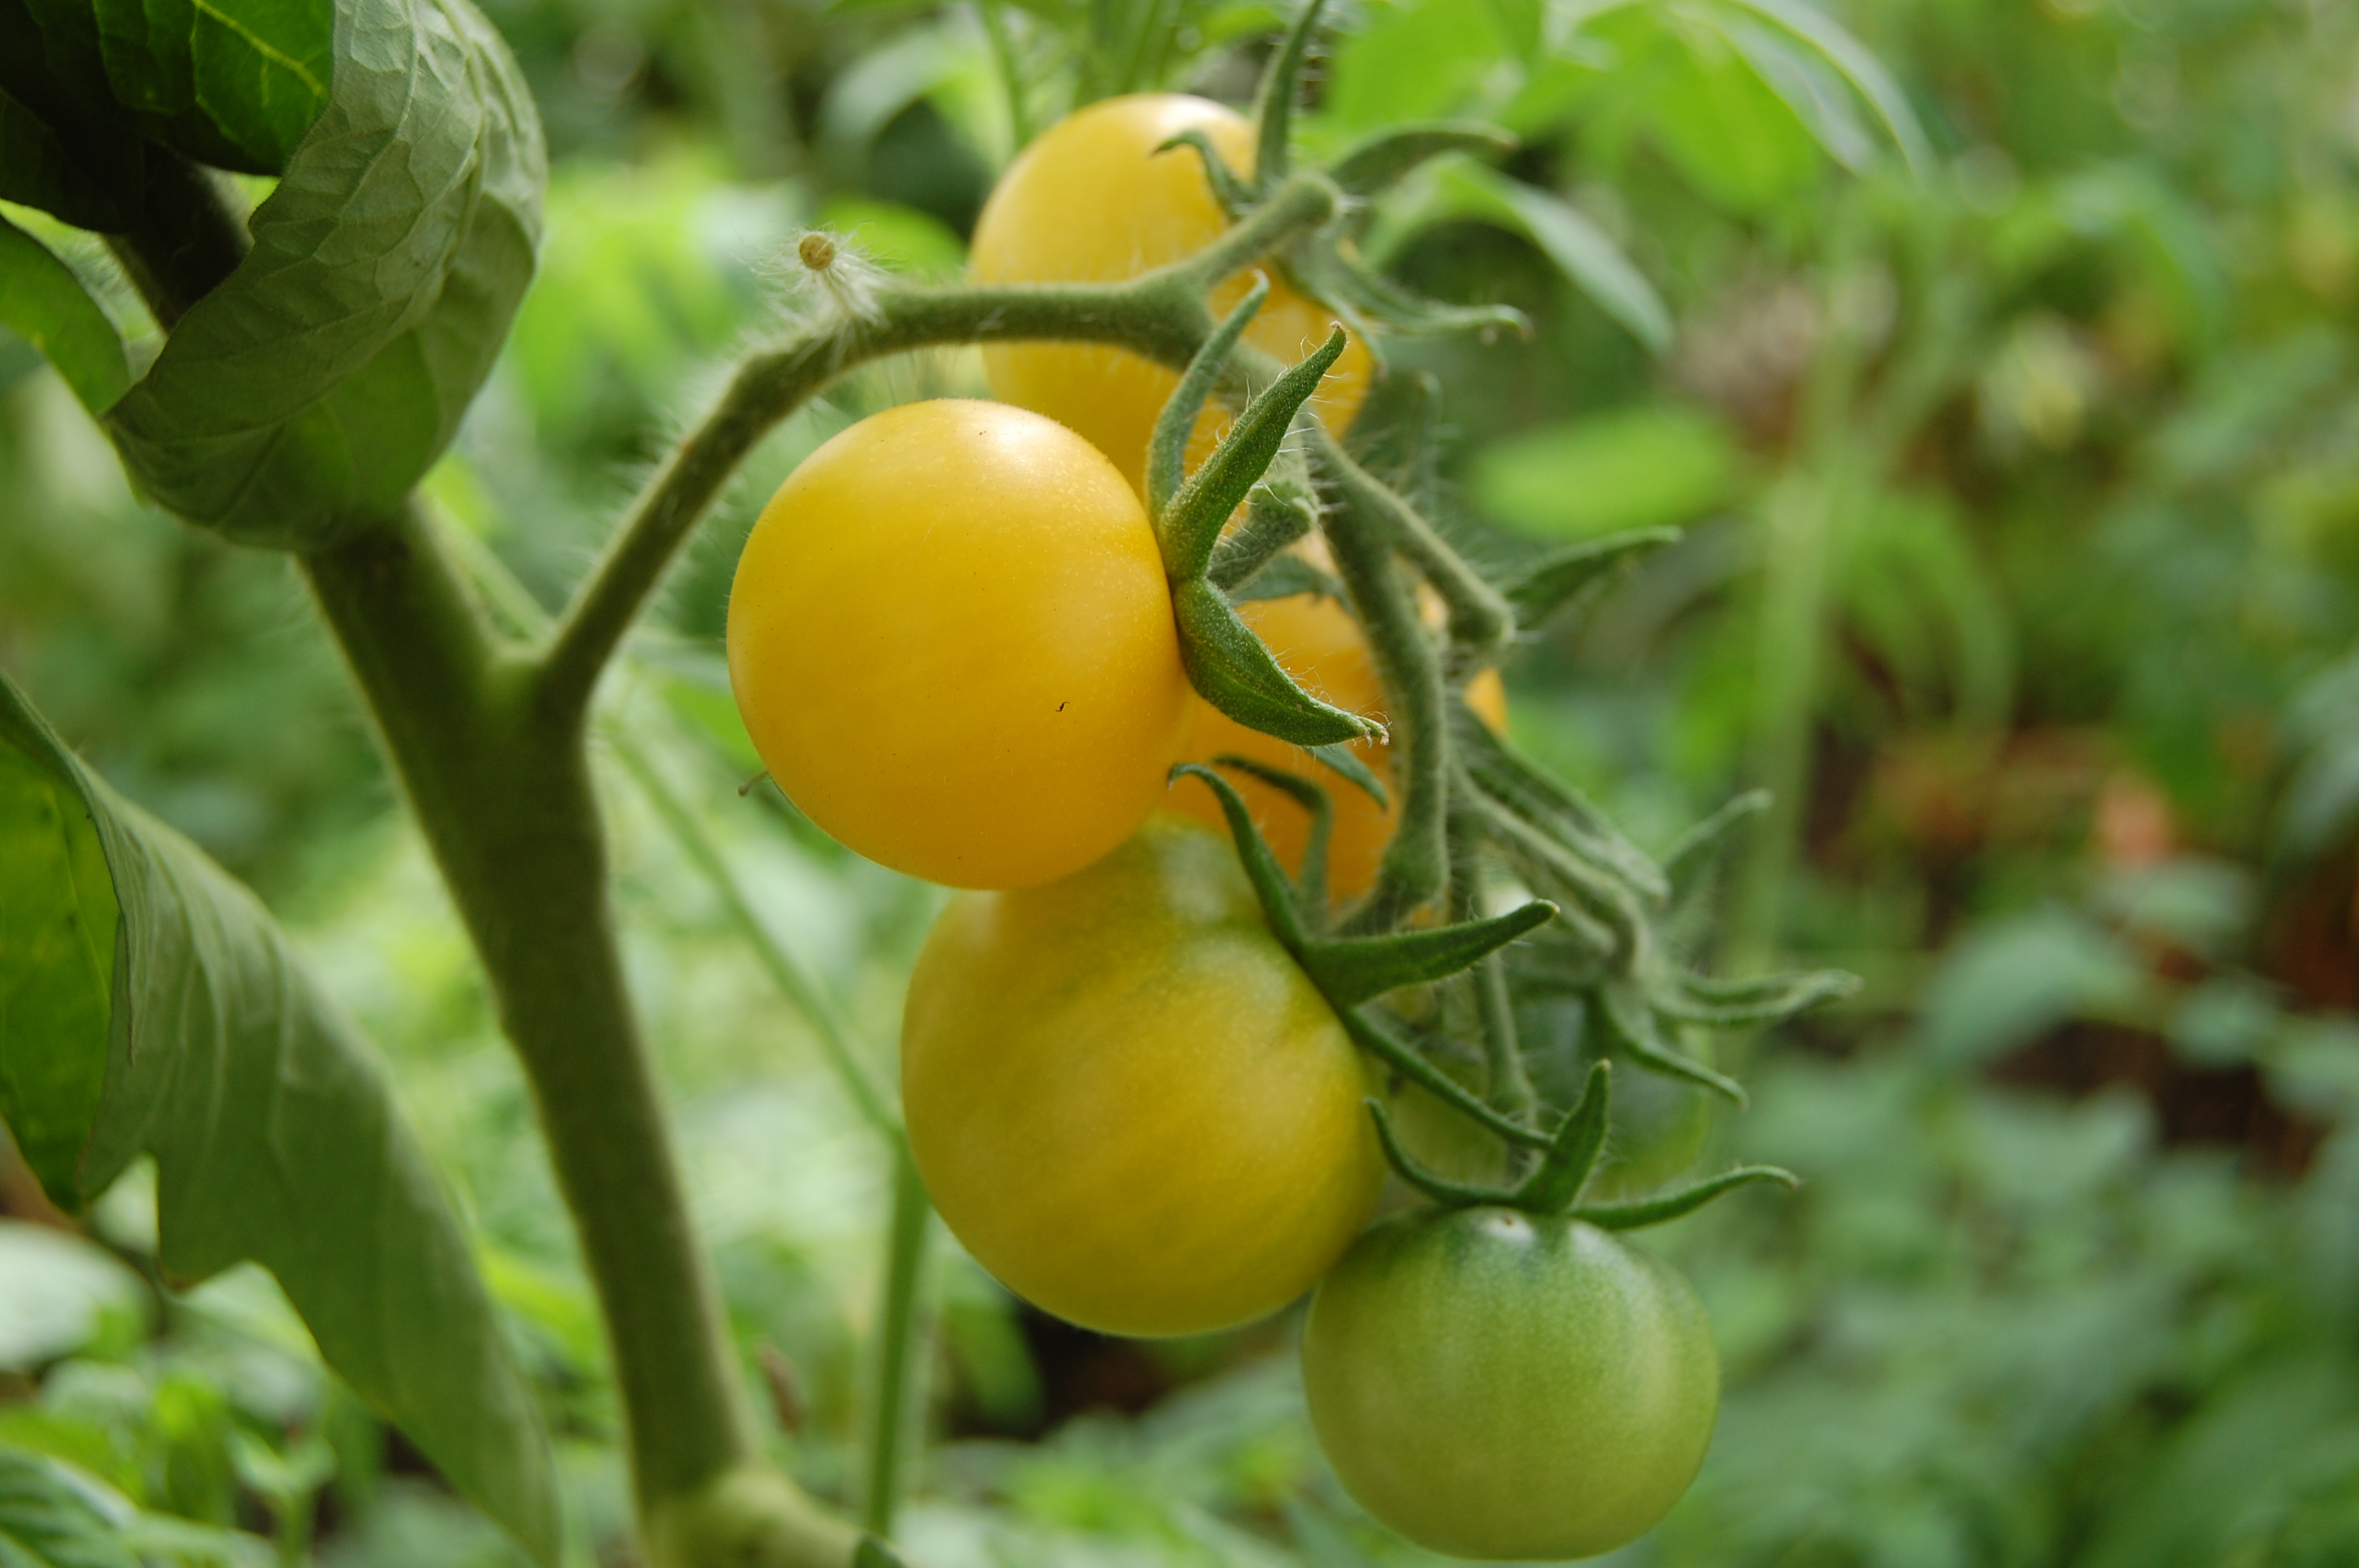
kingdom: Plantae
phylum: Tracheophyta
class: Magnoliopsida
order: Solanales
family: Solanaceae
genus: Solanum
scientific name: Solanum lycopersicum
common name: Garden tomato
